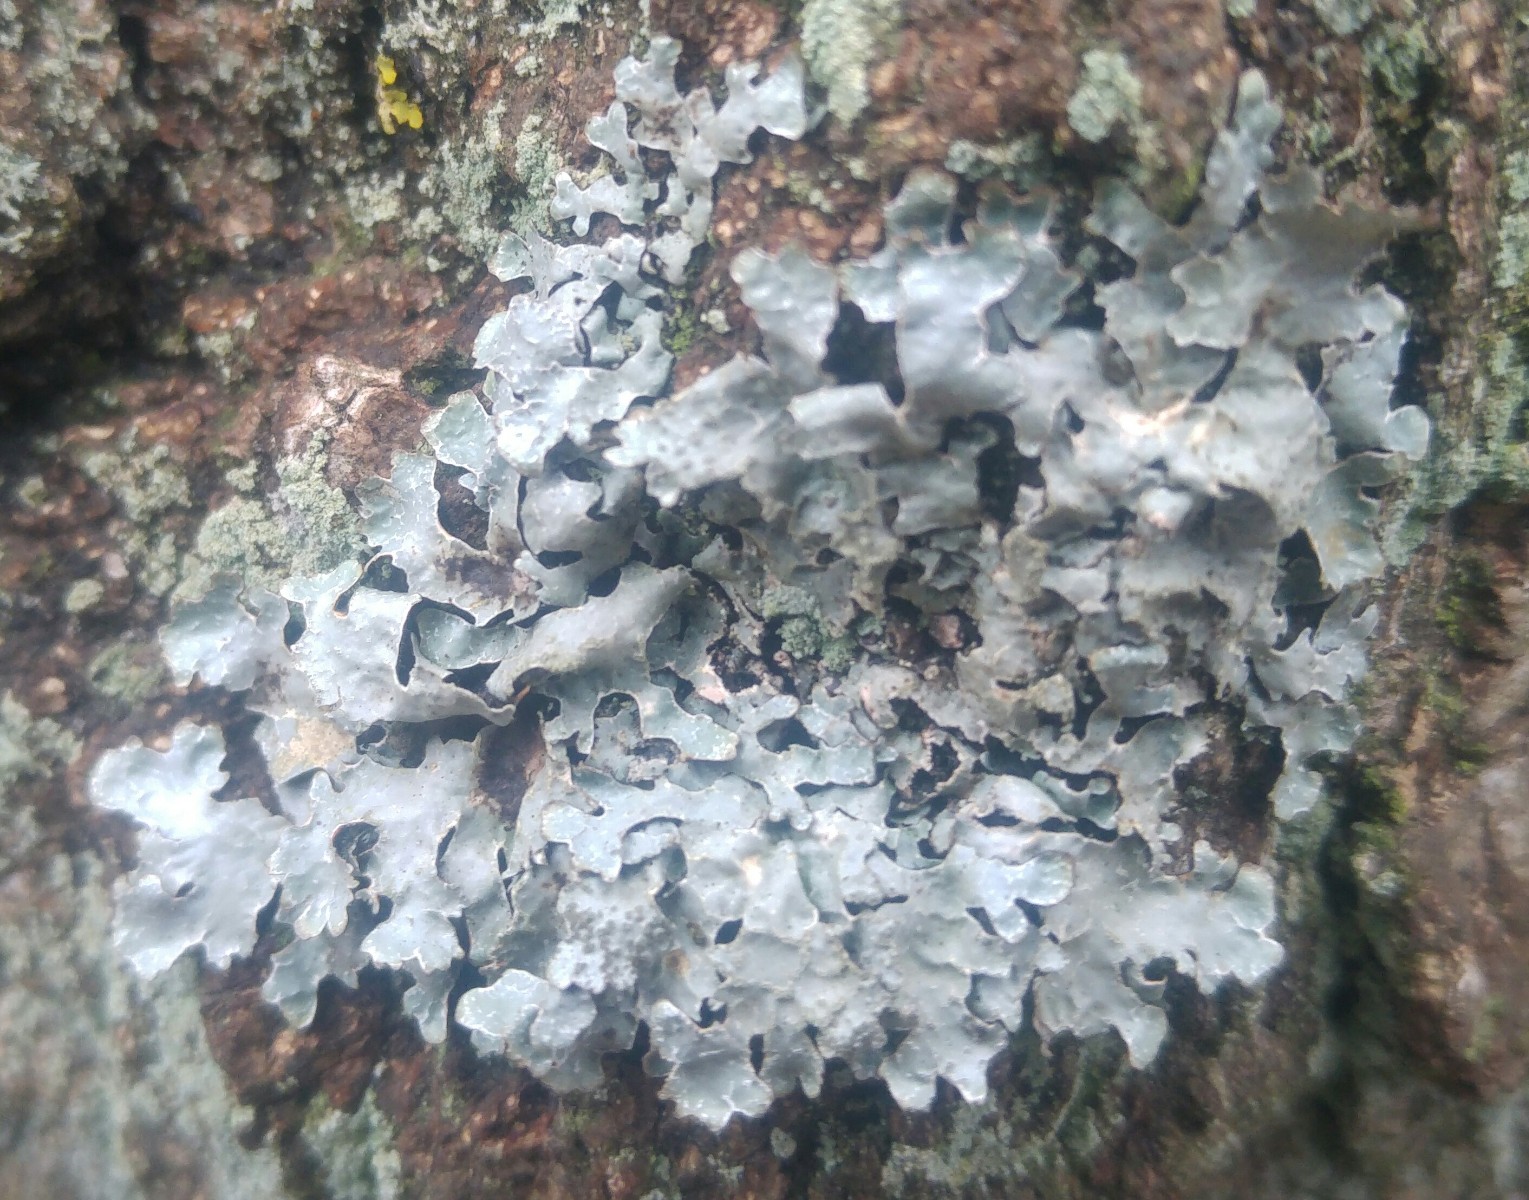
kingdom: Fungi
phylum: Ascomycota
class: Lecanoromycetes
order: Lecanorales
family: Parmeliaceae
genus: Parmelia
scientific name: Parmelia sulcata
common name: rynket skållav
